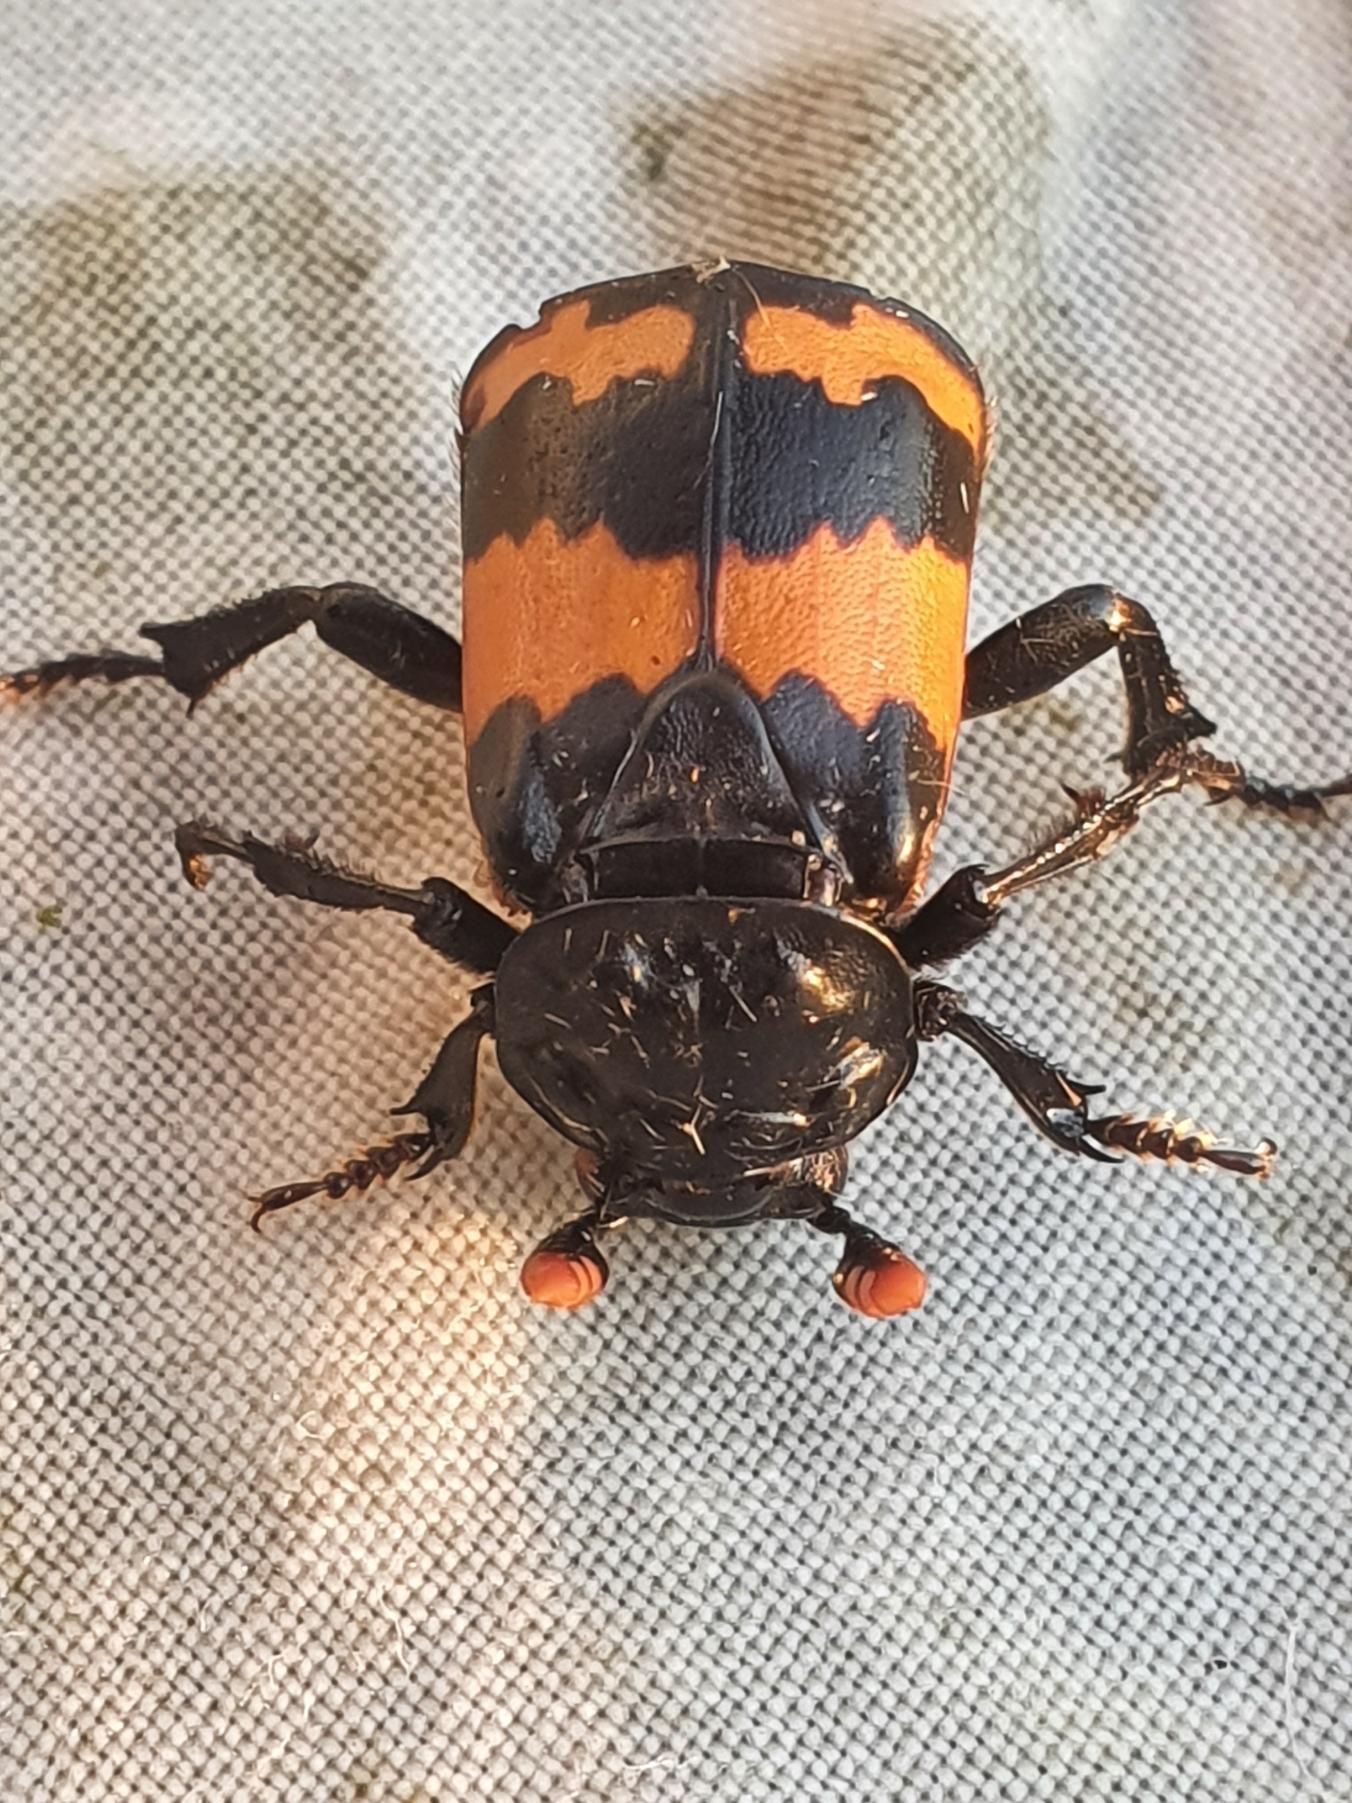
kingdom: Animalia
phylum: Arthropoda
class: Insecta
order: Coleoptera
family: Staphylinidae
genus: Nicrophorus
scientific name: Nicrophorus investigator
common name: Skovådselgraver
